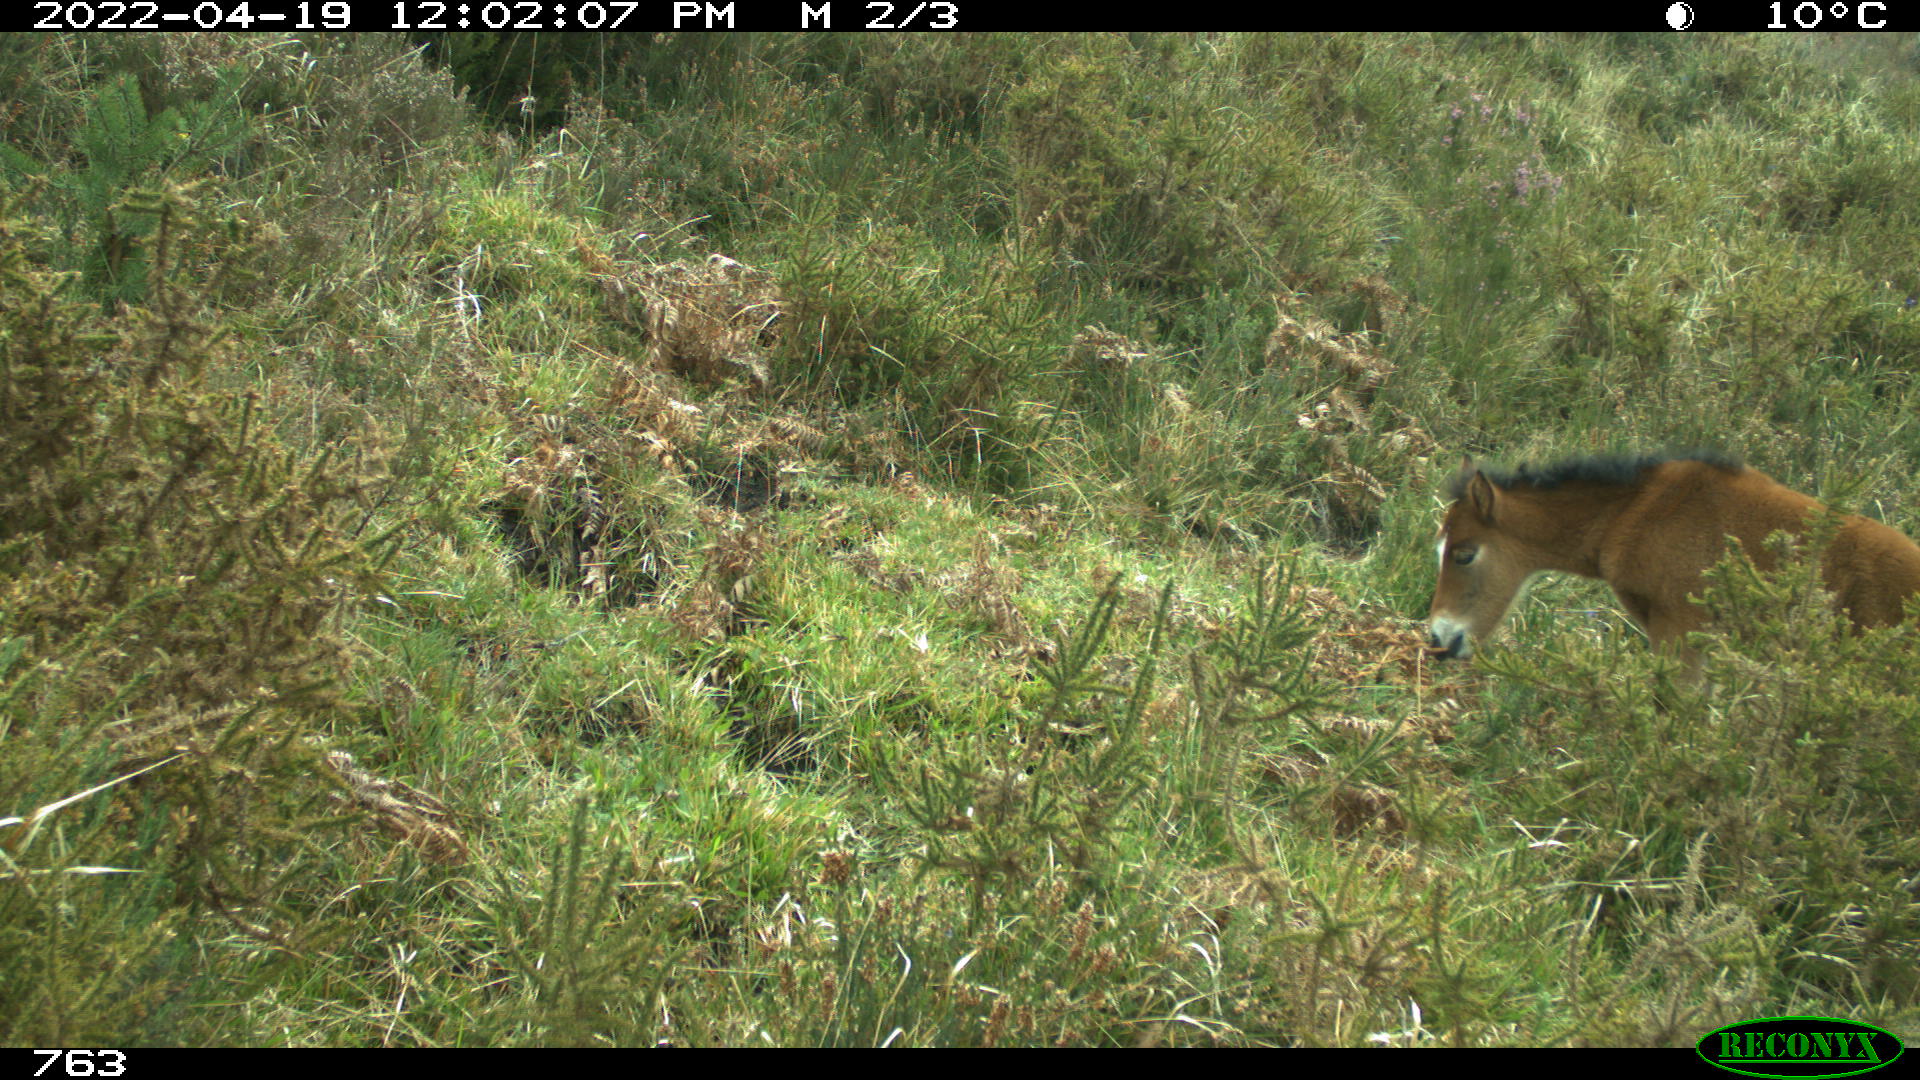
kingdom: Animalia
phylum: Chordata
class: Mammalia
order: Perissodactyla
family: Equidae
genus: Equus
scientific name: Equus caballus
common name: Horse
